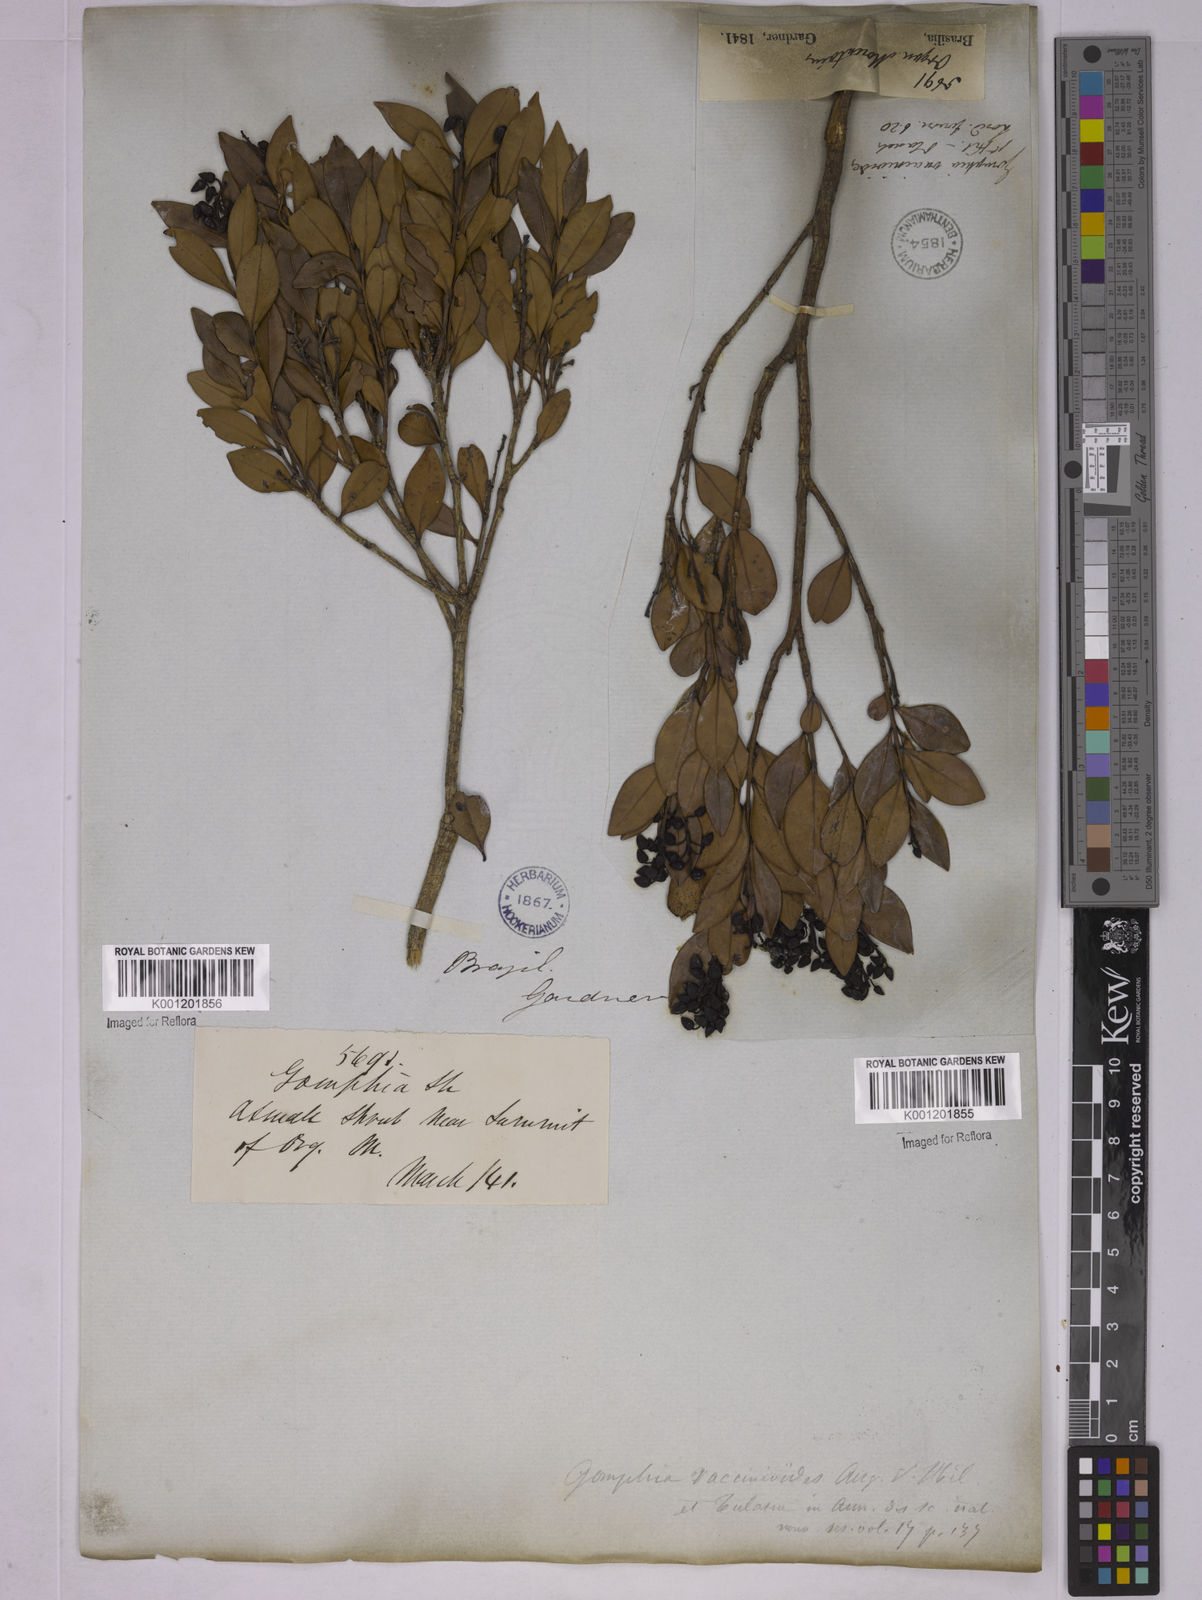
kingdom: Plantae
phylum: Tracheophyta
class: Magnoliopsida
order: Malpighiales
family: Ochnaceae
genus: Ouratea
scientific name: Ouratea vaccinioides
